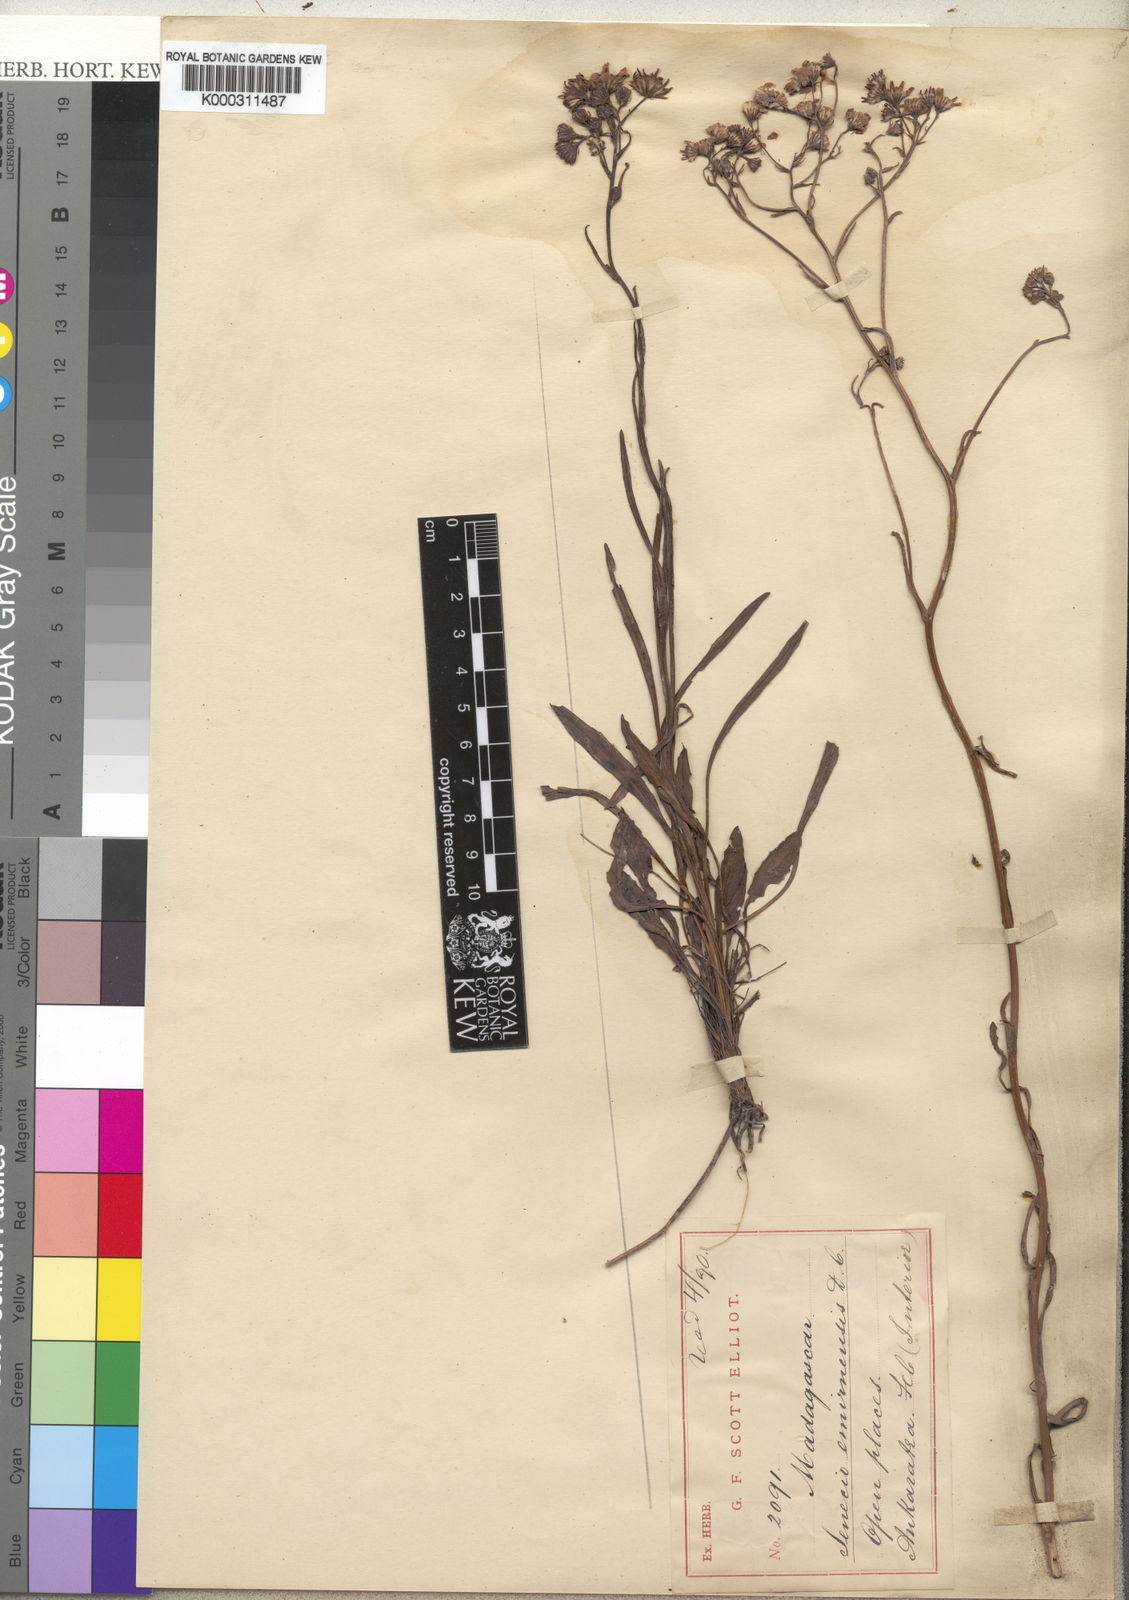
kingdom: Plantae
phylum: Tracheophyta
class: Magnoliopsida
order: Asterales
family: Asteraceae
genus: Senecio
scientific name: Senecio emirnensis
